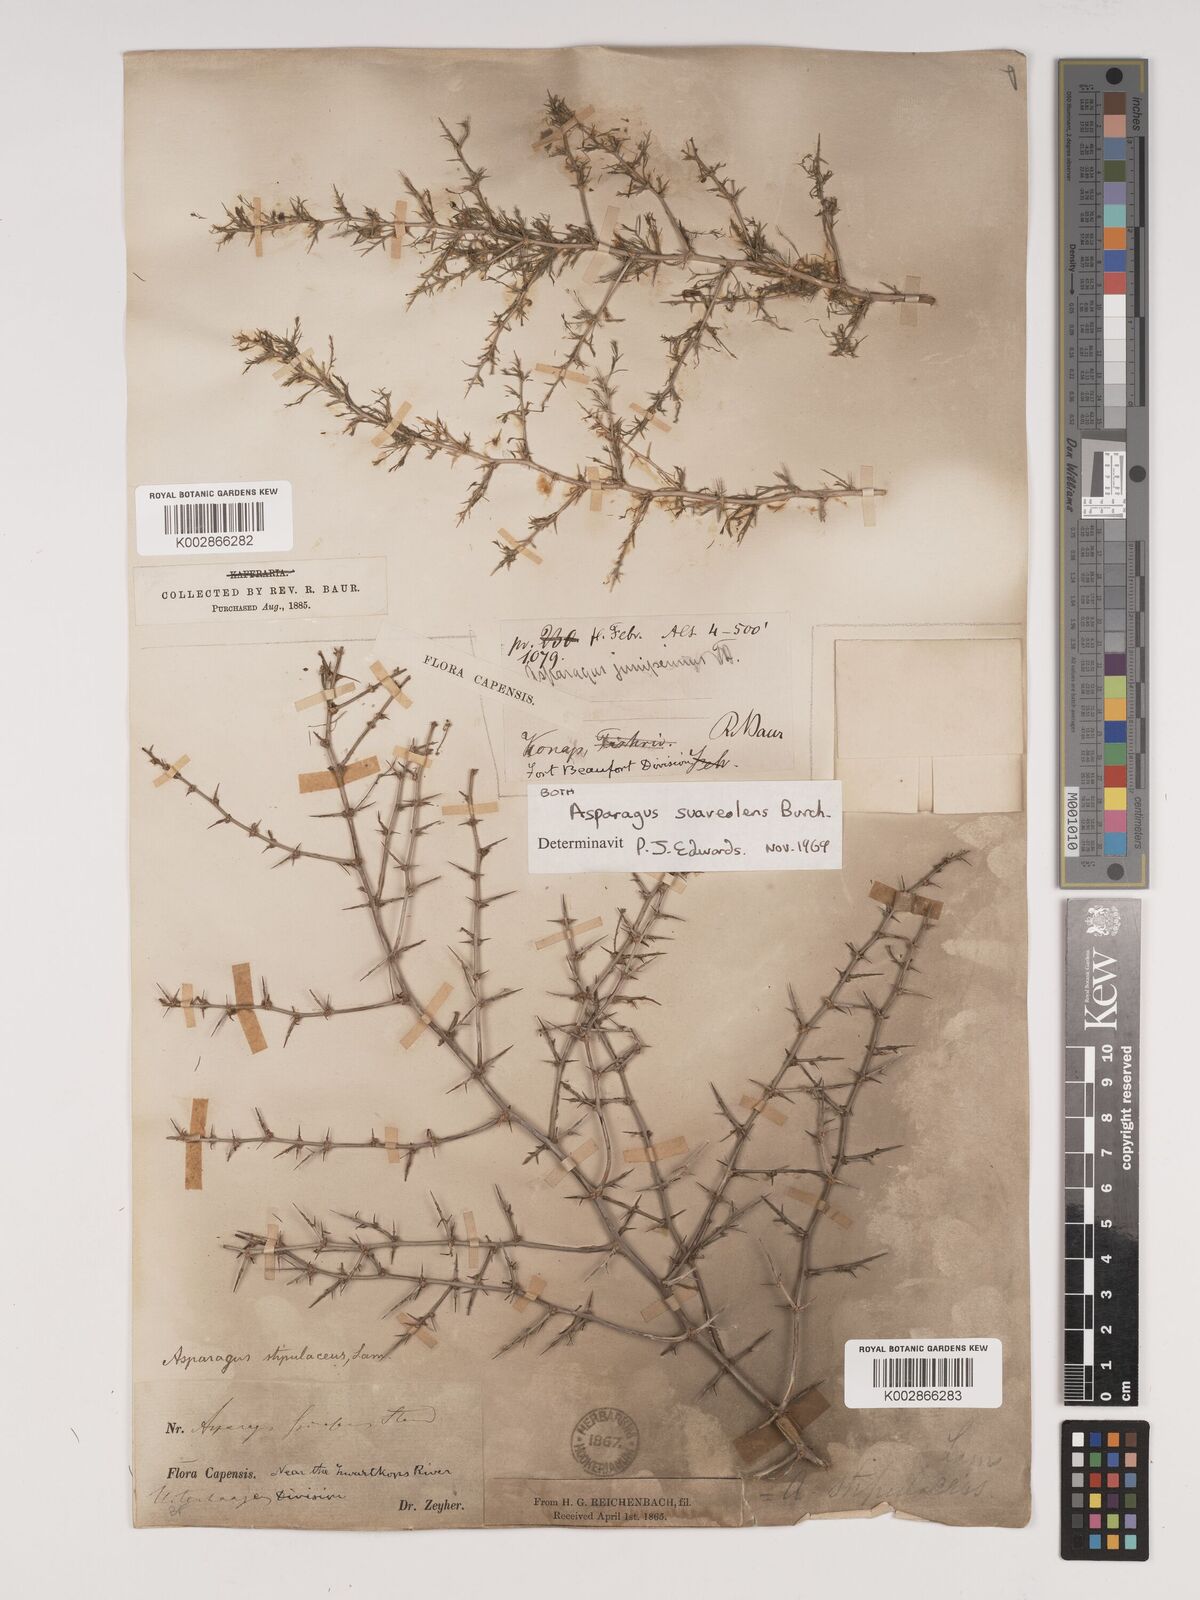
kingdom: Plantae
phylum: Tracheophyta
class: Liliopsida
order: Asparagales
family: Asparagaceae
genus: Asparagus
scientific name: Asparagus suaveolens
